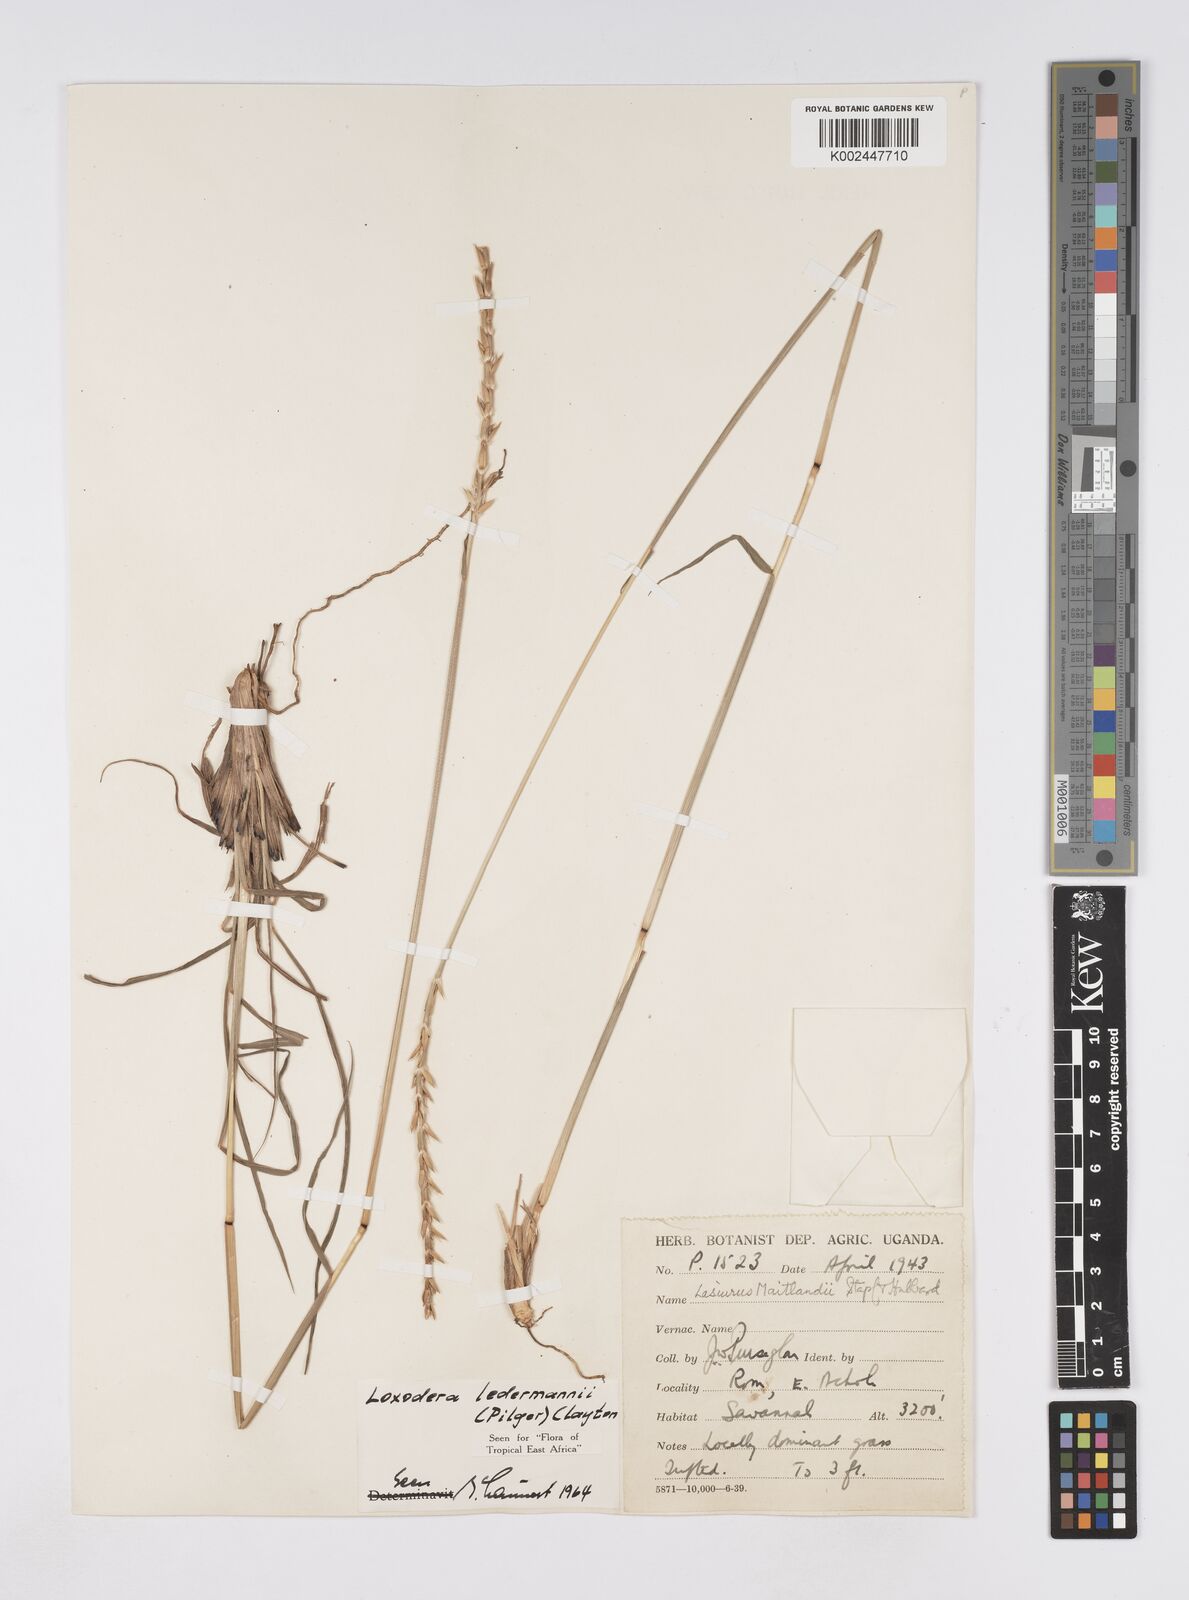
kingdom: Plantae
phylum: Tracheophyta
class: Liliopsida
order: Poales
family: Poaceae
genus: Loxodera
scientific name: Loxodera ledermannii
